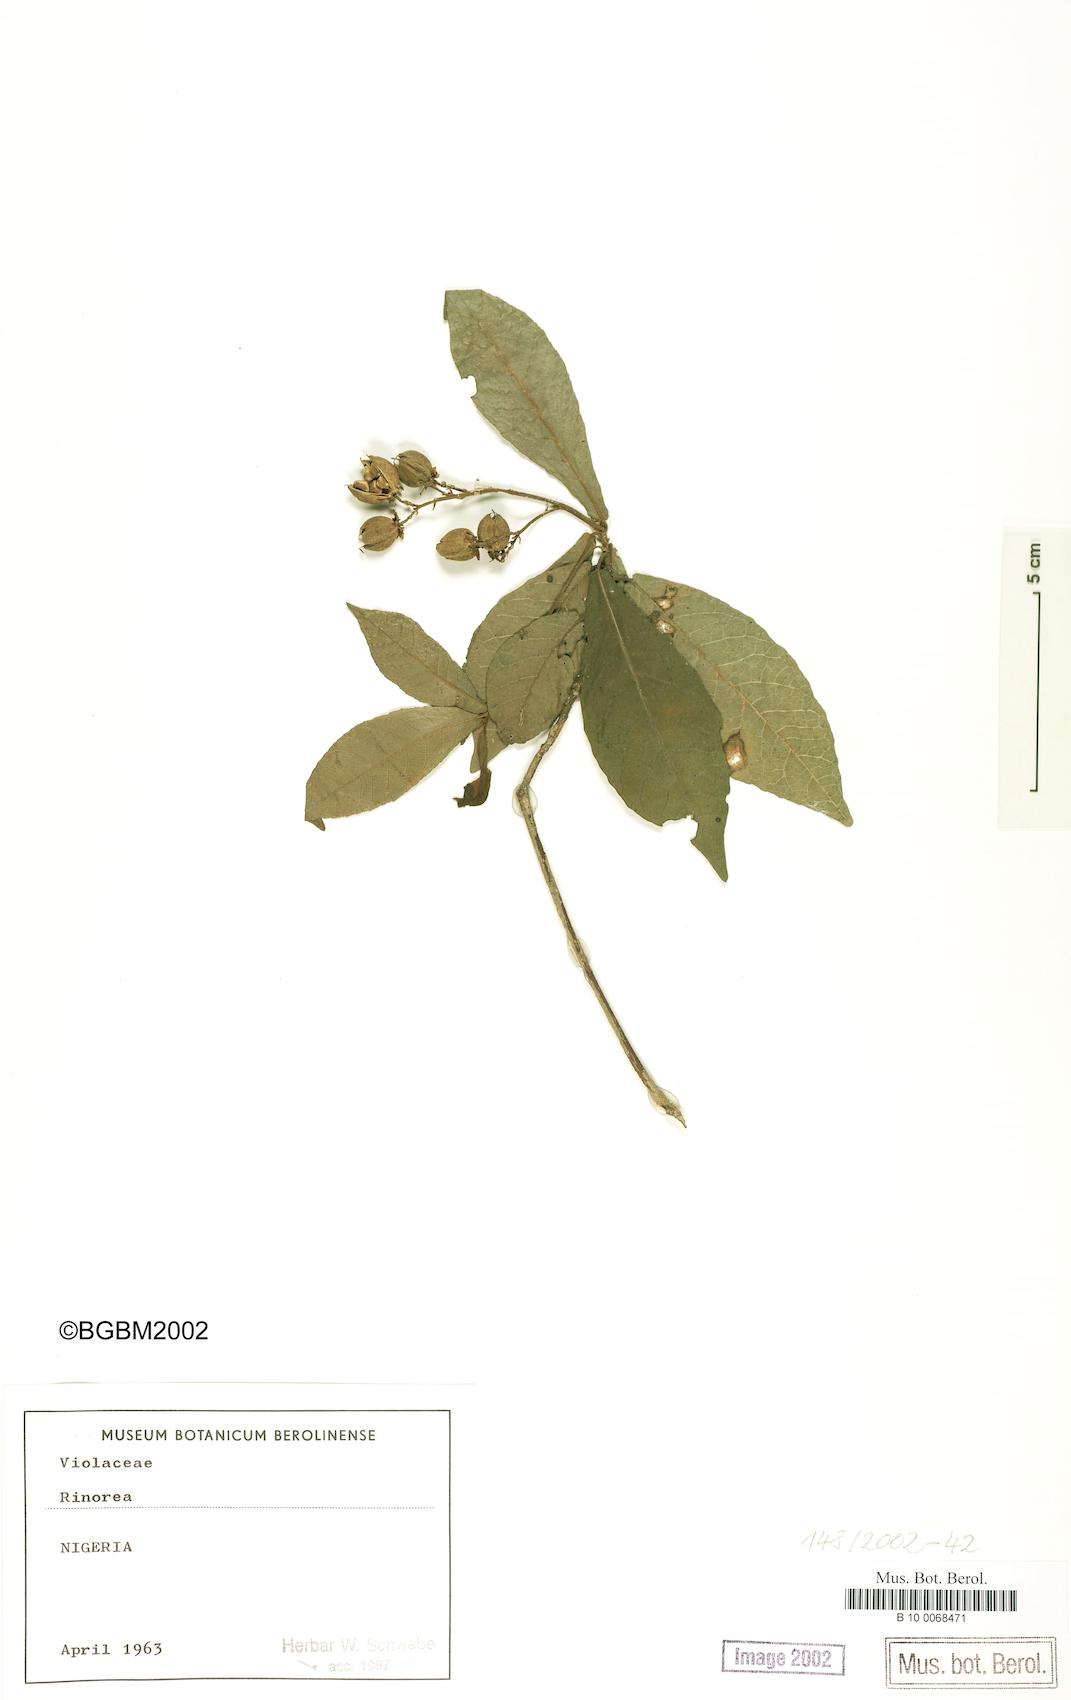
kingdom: Plantae
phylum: Tracheophyta
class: Magnoliopsida
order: Malpighiales
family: Violaceae
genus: Rinorea
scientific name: Rinorea
